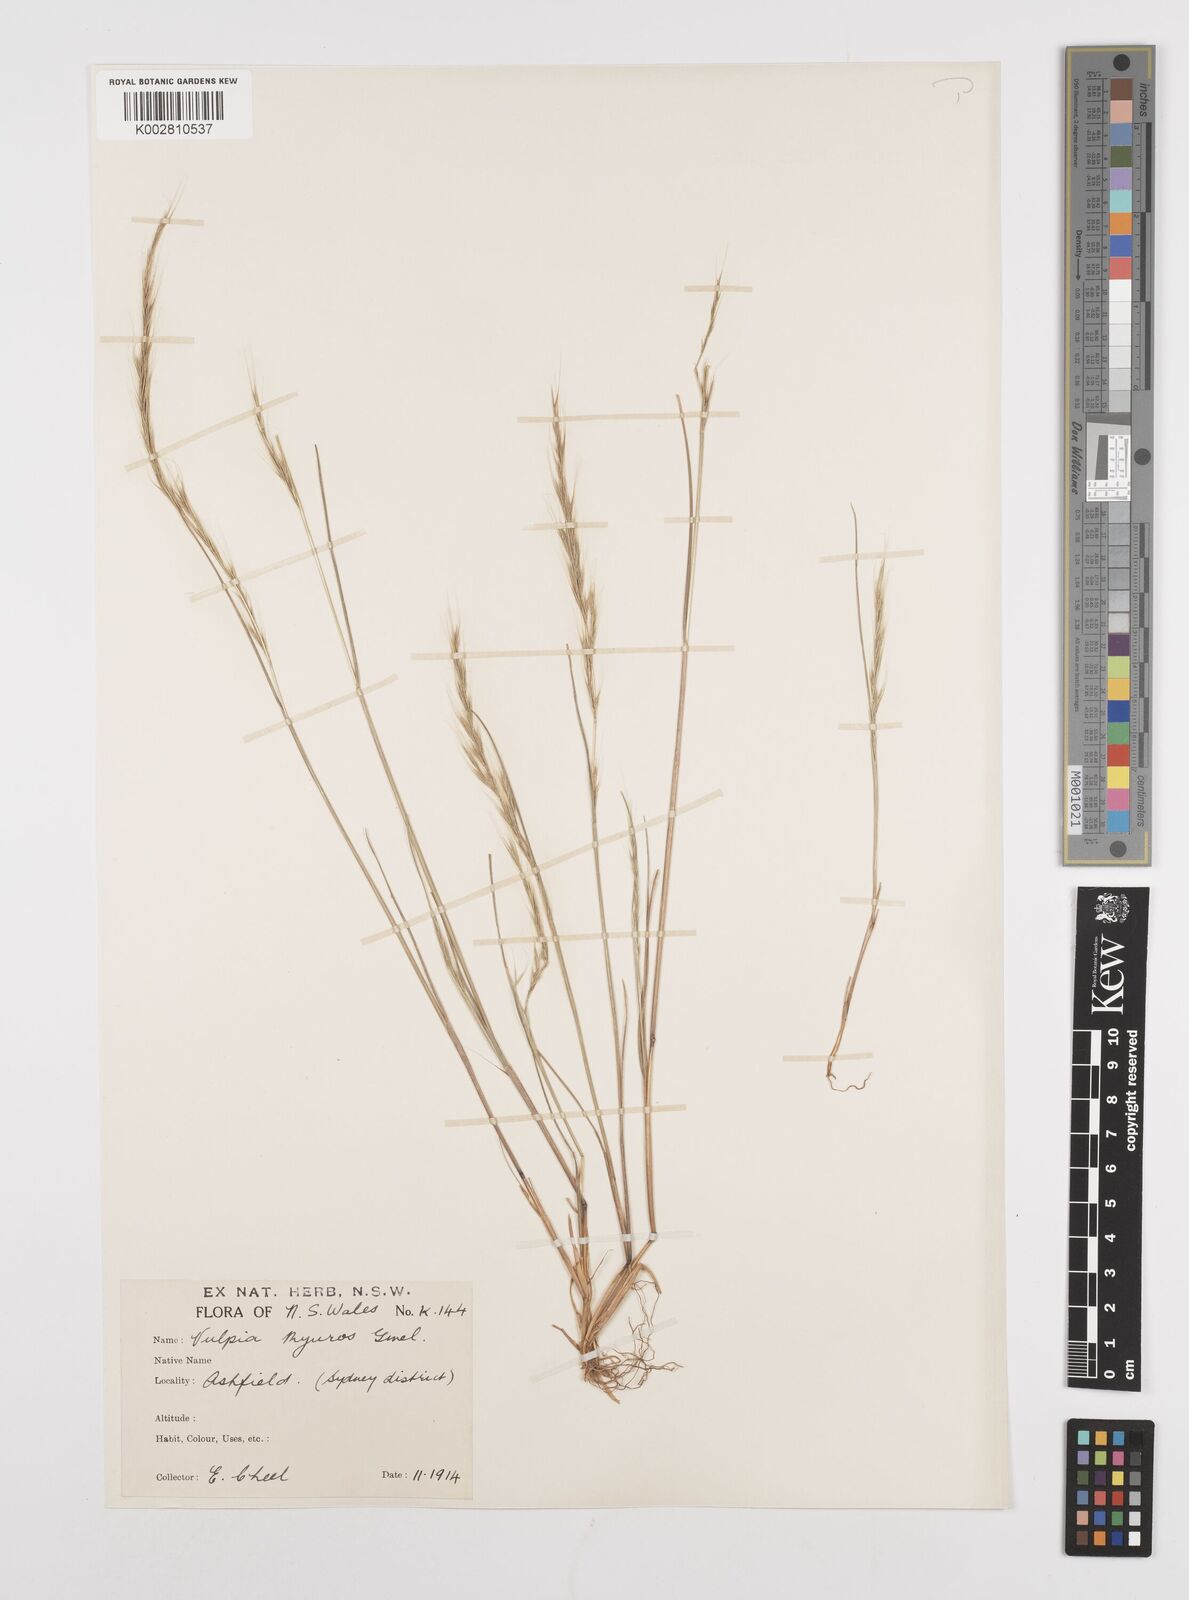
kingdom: Plantae
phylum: Tracheophyta
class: Liliopsida
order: Poales
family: Poaceae
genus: Festuca
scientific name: Festuca myuros
